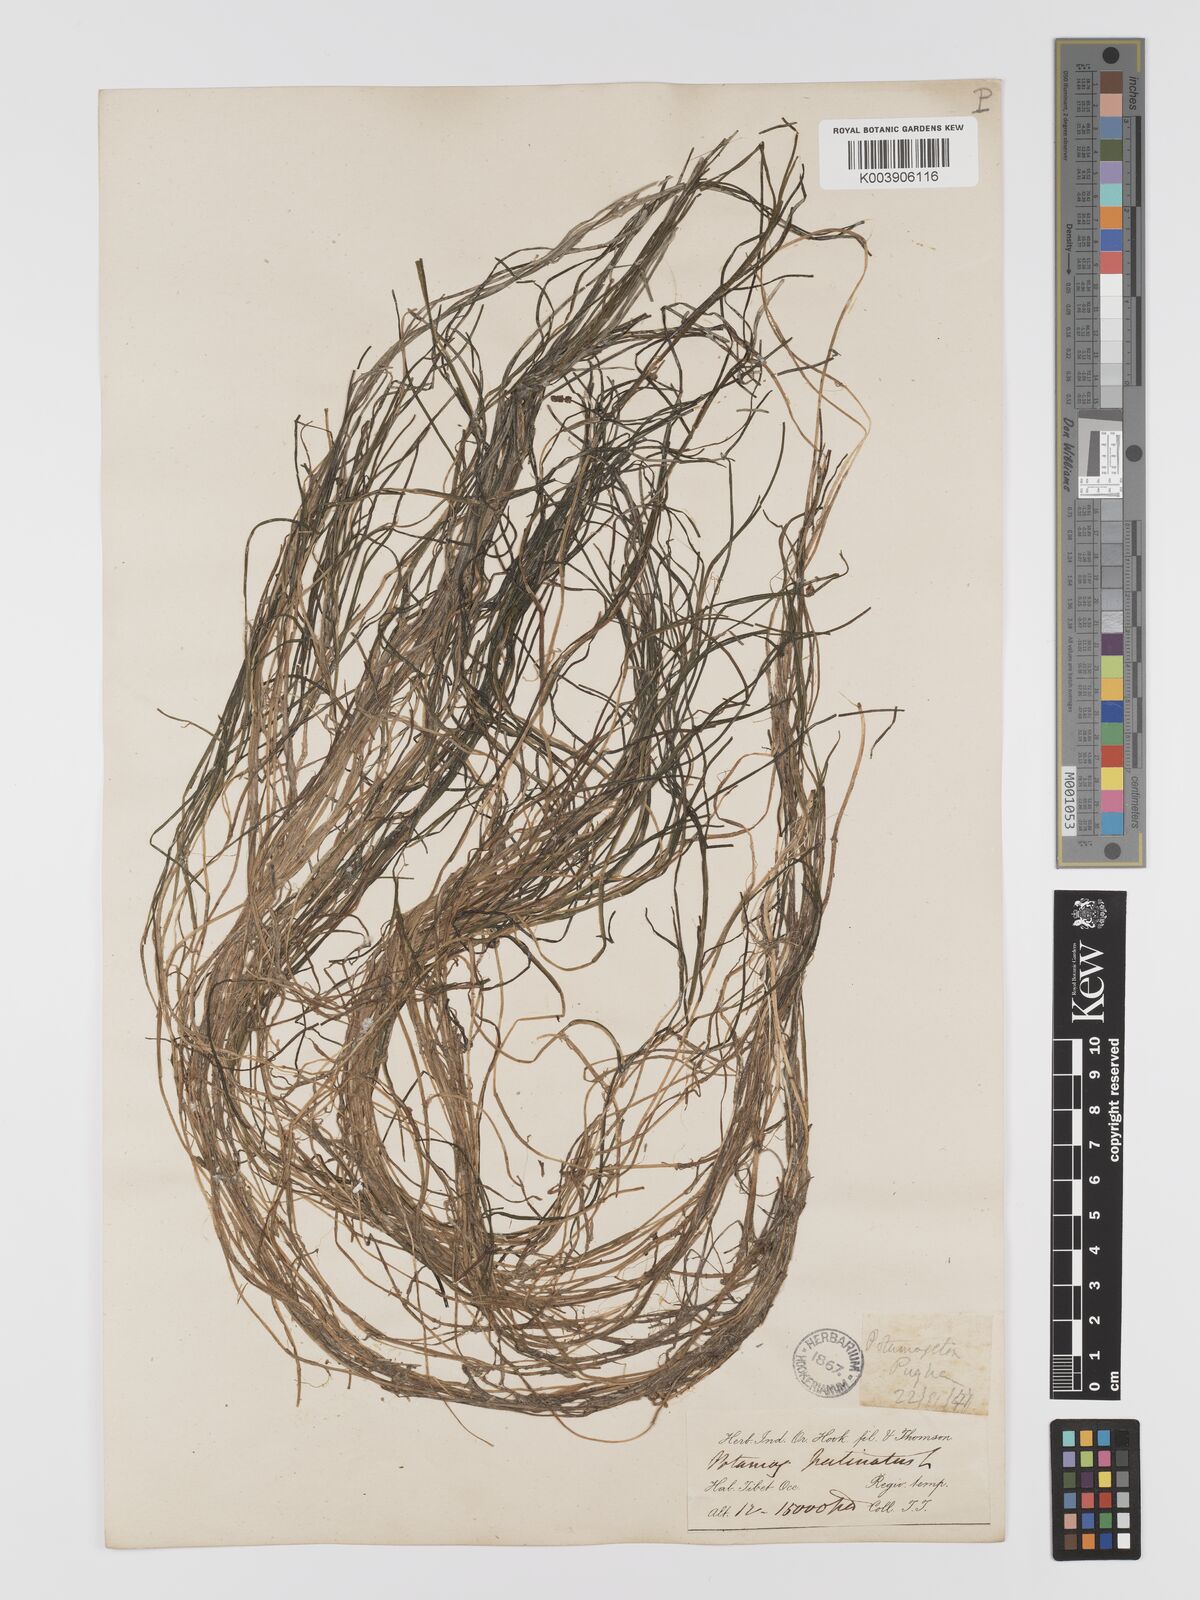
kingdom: Plantae
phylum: Tracheophyta
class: Liliopsida
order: Alismatales
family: Potamogetonaceae
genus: Stuckenia
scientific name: Stuckenia pectinata
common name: Sago pondweed
